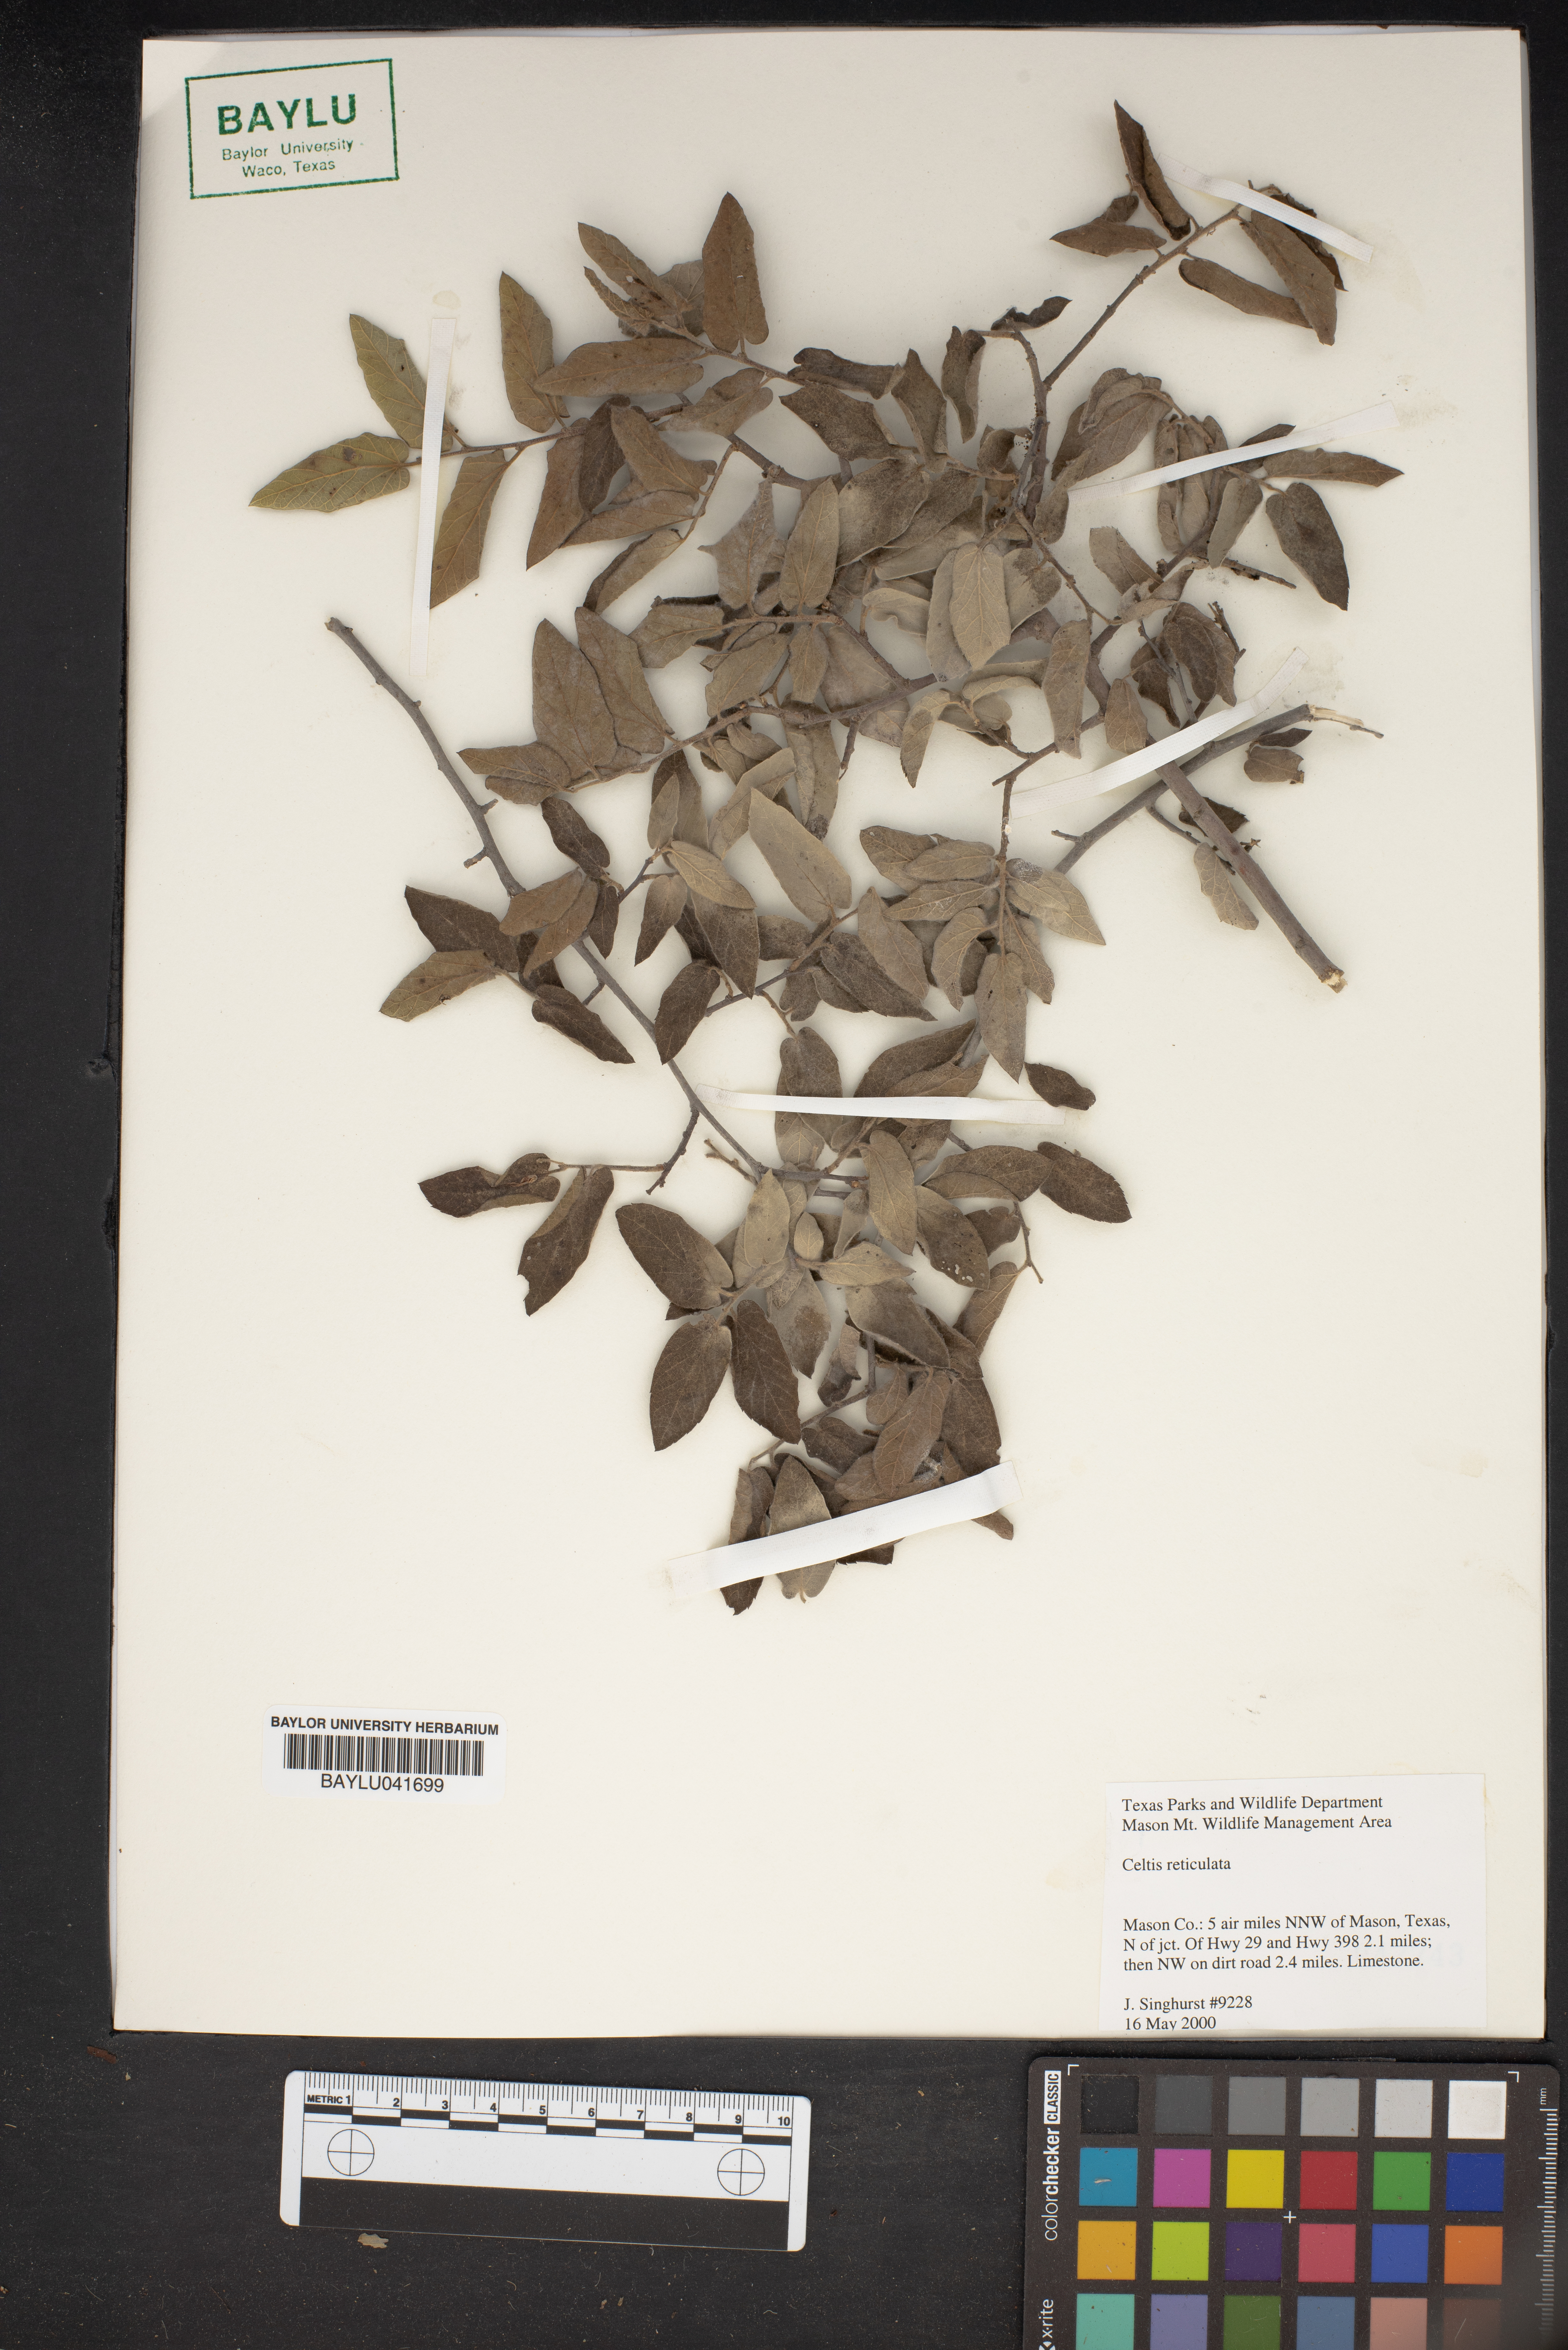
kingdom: Plantae
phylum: Tracheophyta
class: Magnoliopsida
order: Rosales
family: Cannabaceae
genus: Celtis
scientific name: Celtis reticulata
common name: Netleaf hackberry
